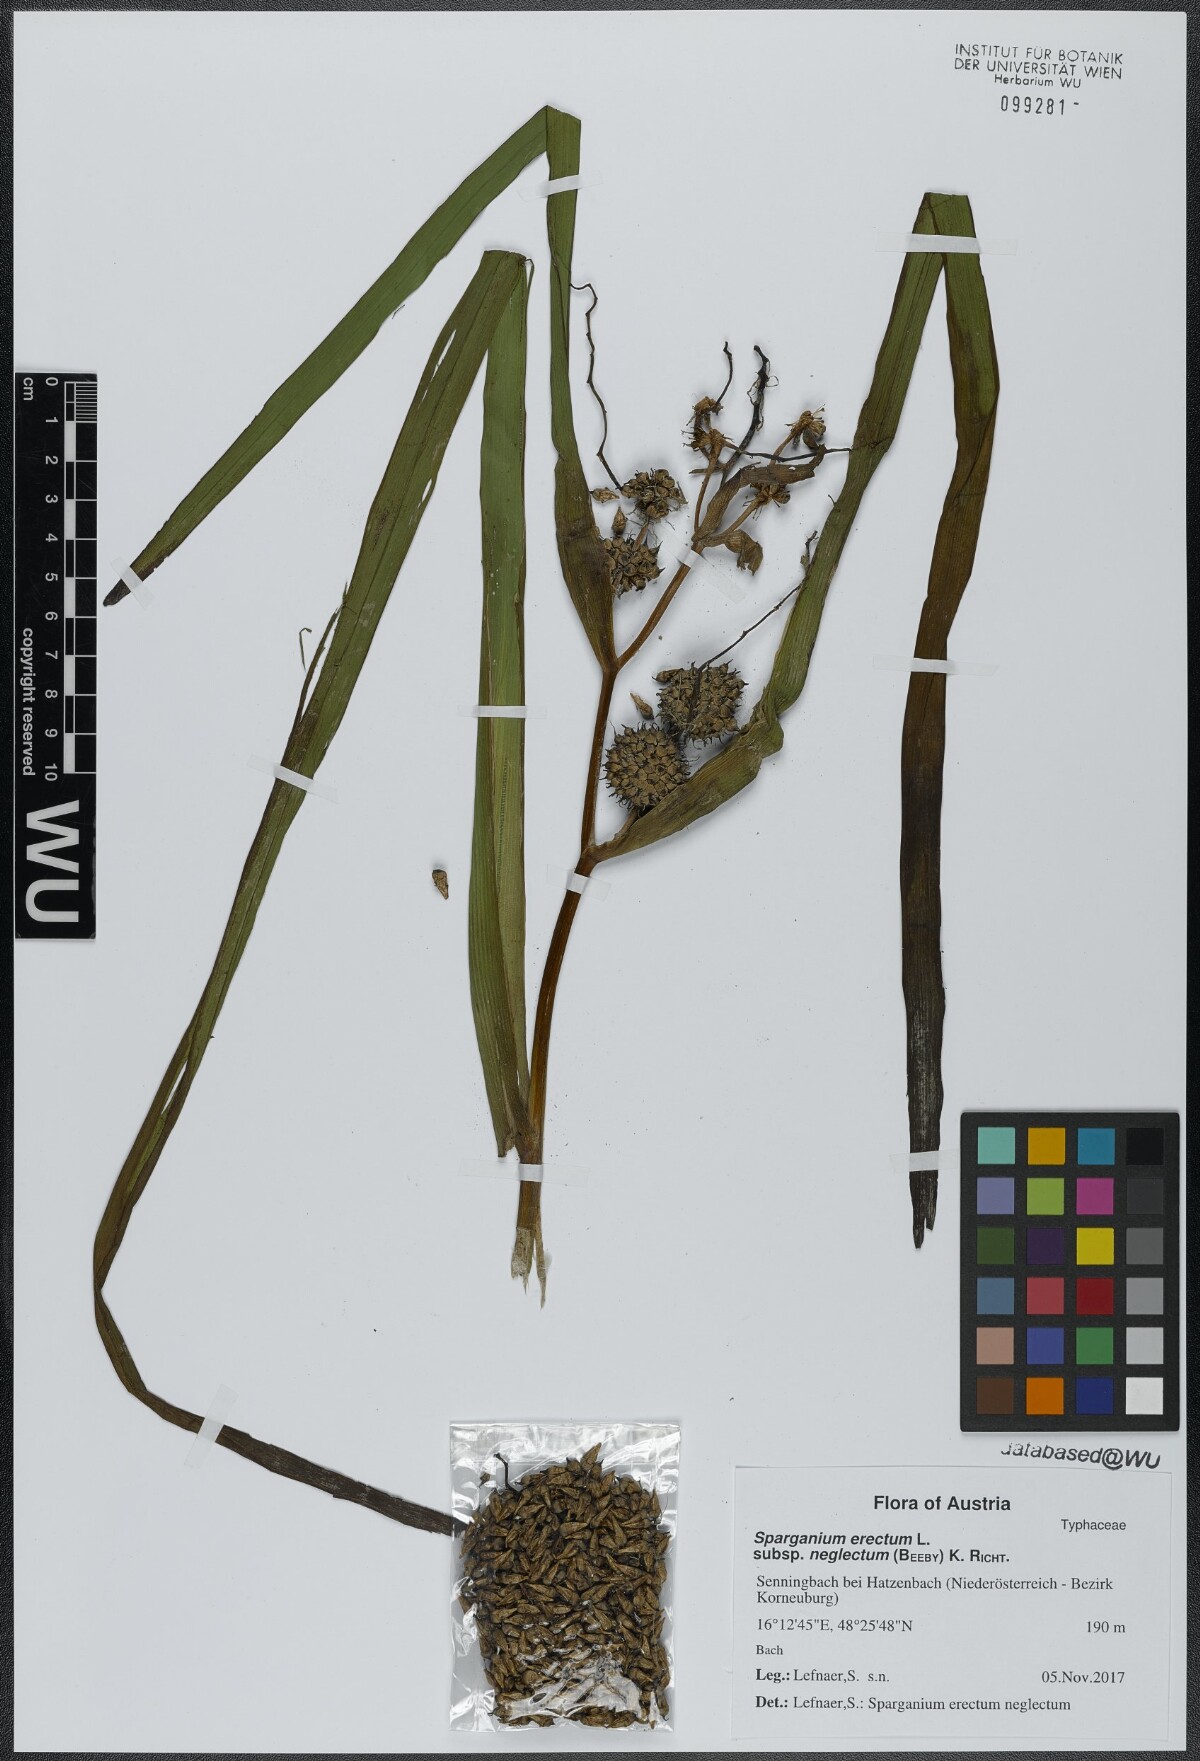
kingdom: Plantae
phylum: Tracheophyta
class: Liliopsida
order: Poales
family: Typhaceae
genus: Sparganium
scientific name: Sparganium erectum
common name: Branched bur-reed
